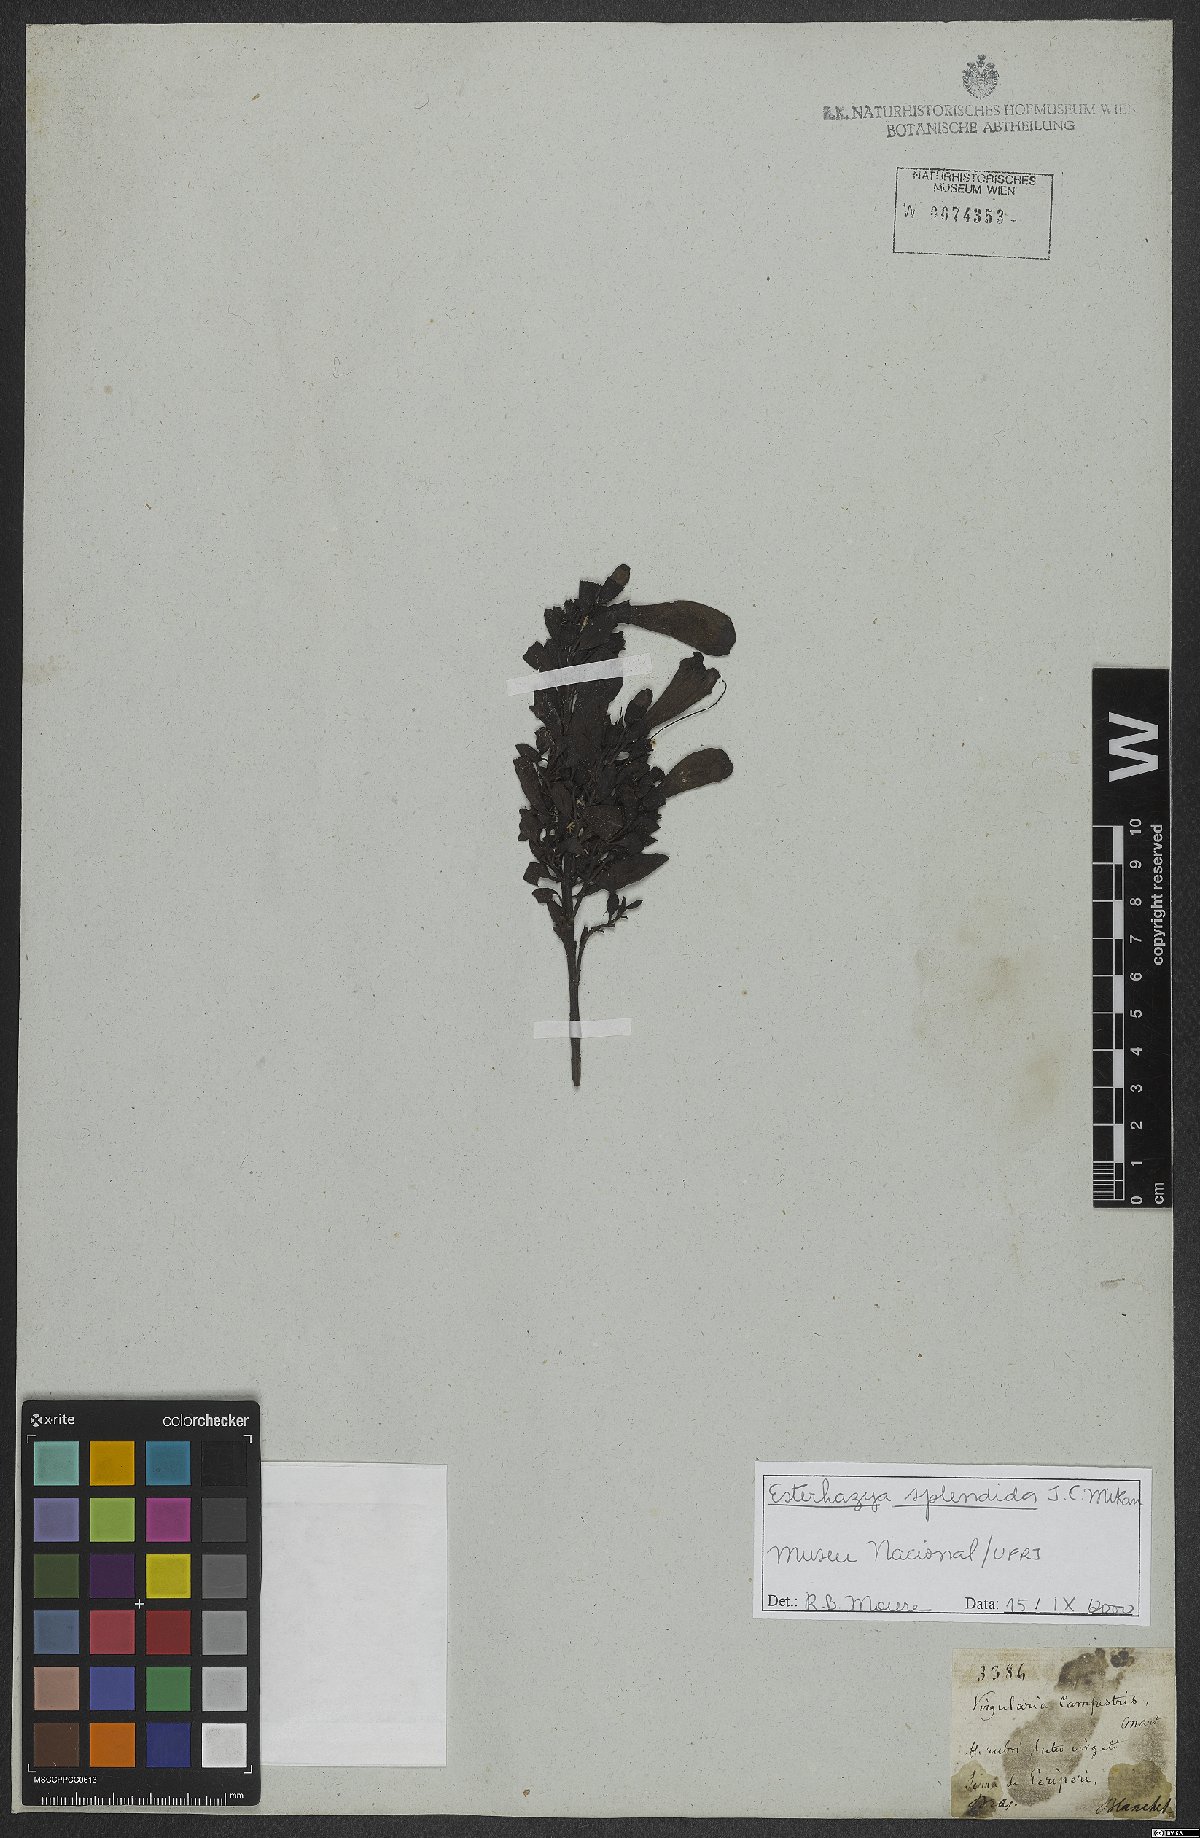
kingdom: Plantae
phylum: Tracheophyta
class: Magnoliopsida
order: Lamiales
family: Orobanchaceae
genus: Esterhazya
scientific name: Esterhazya splendida
